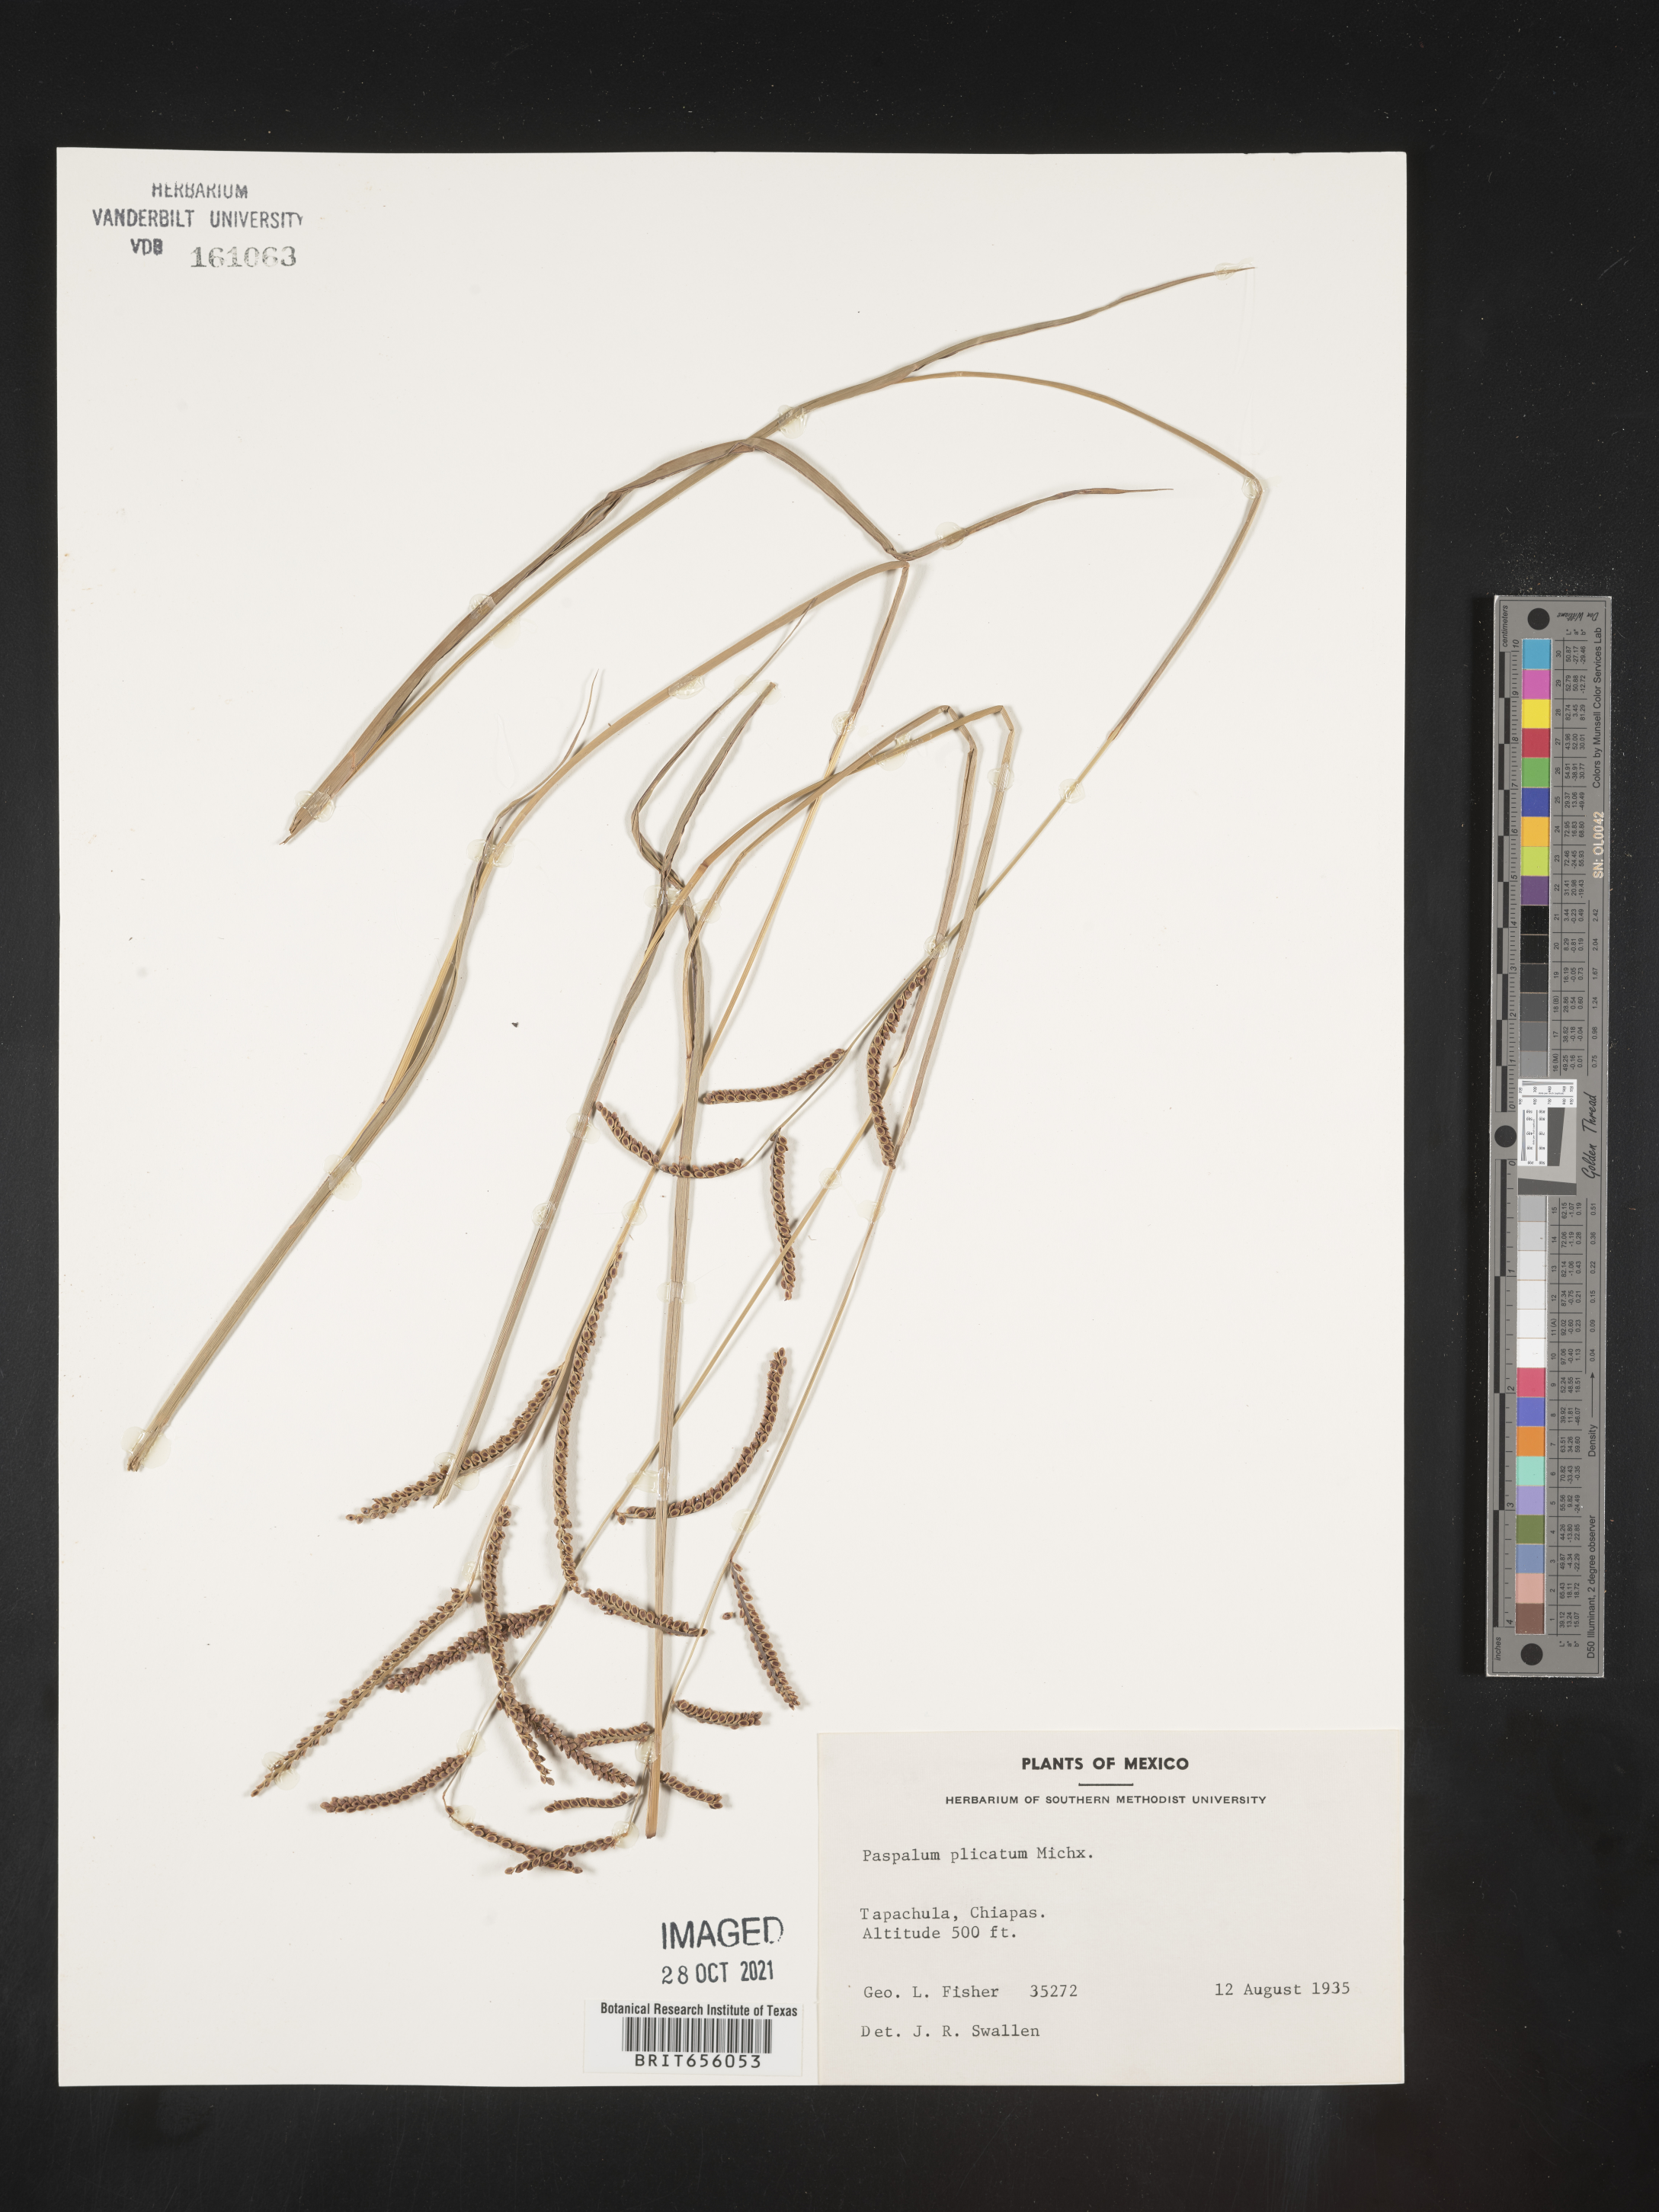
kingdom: Plantae
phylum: Tracheophyta
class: Liliopsida
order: Poales
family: Poaceae
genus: Paspalum
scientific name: Paspalum
